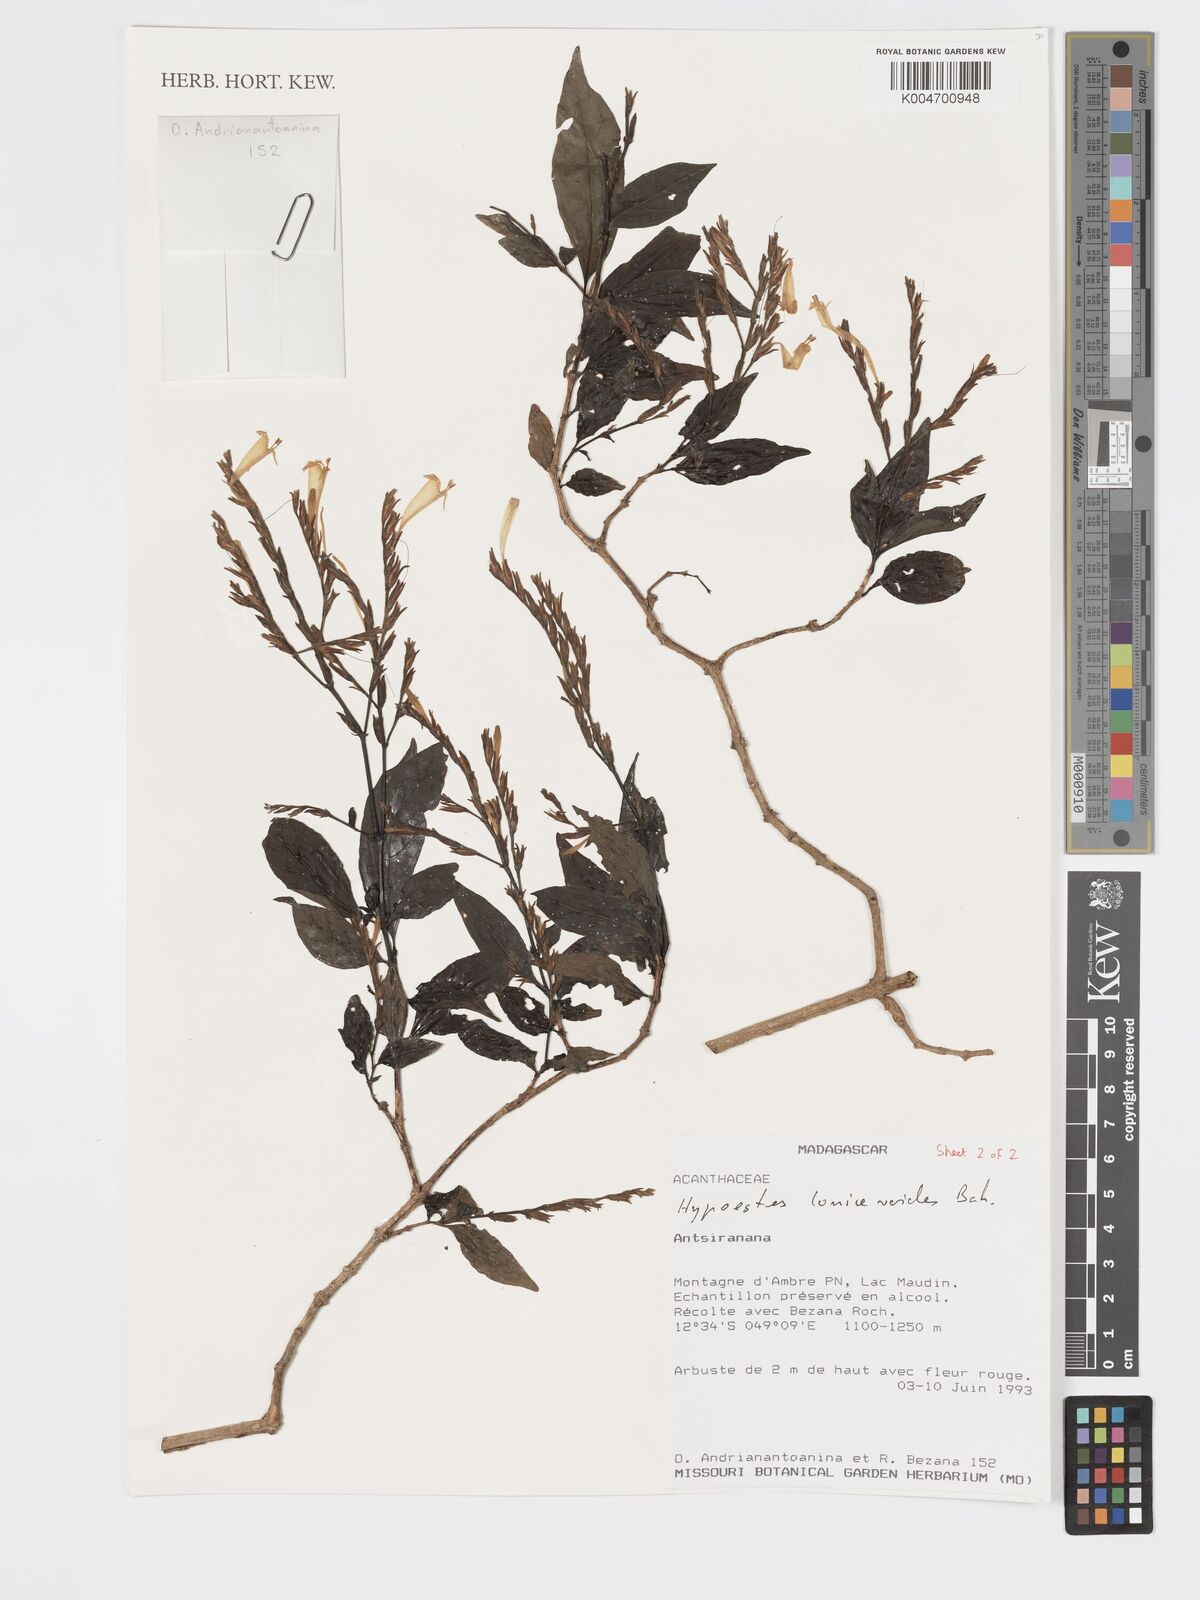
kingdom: Plantae
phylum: Tracheophyta
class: Magnoliopsida
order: Lamiales
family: Acanthaceae
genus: Hypoestes
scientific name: Hypoestes
